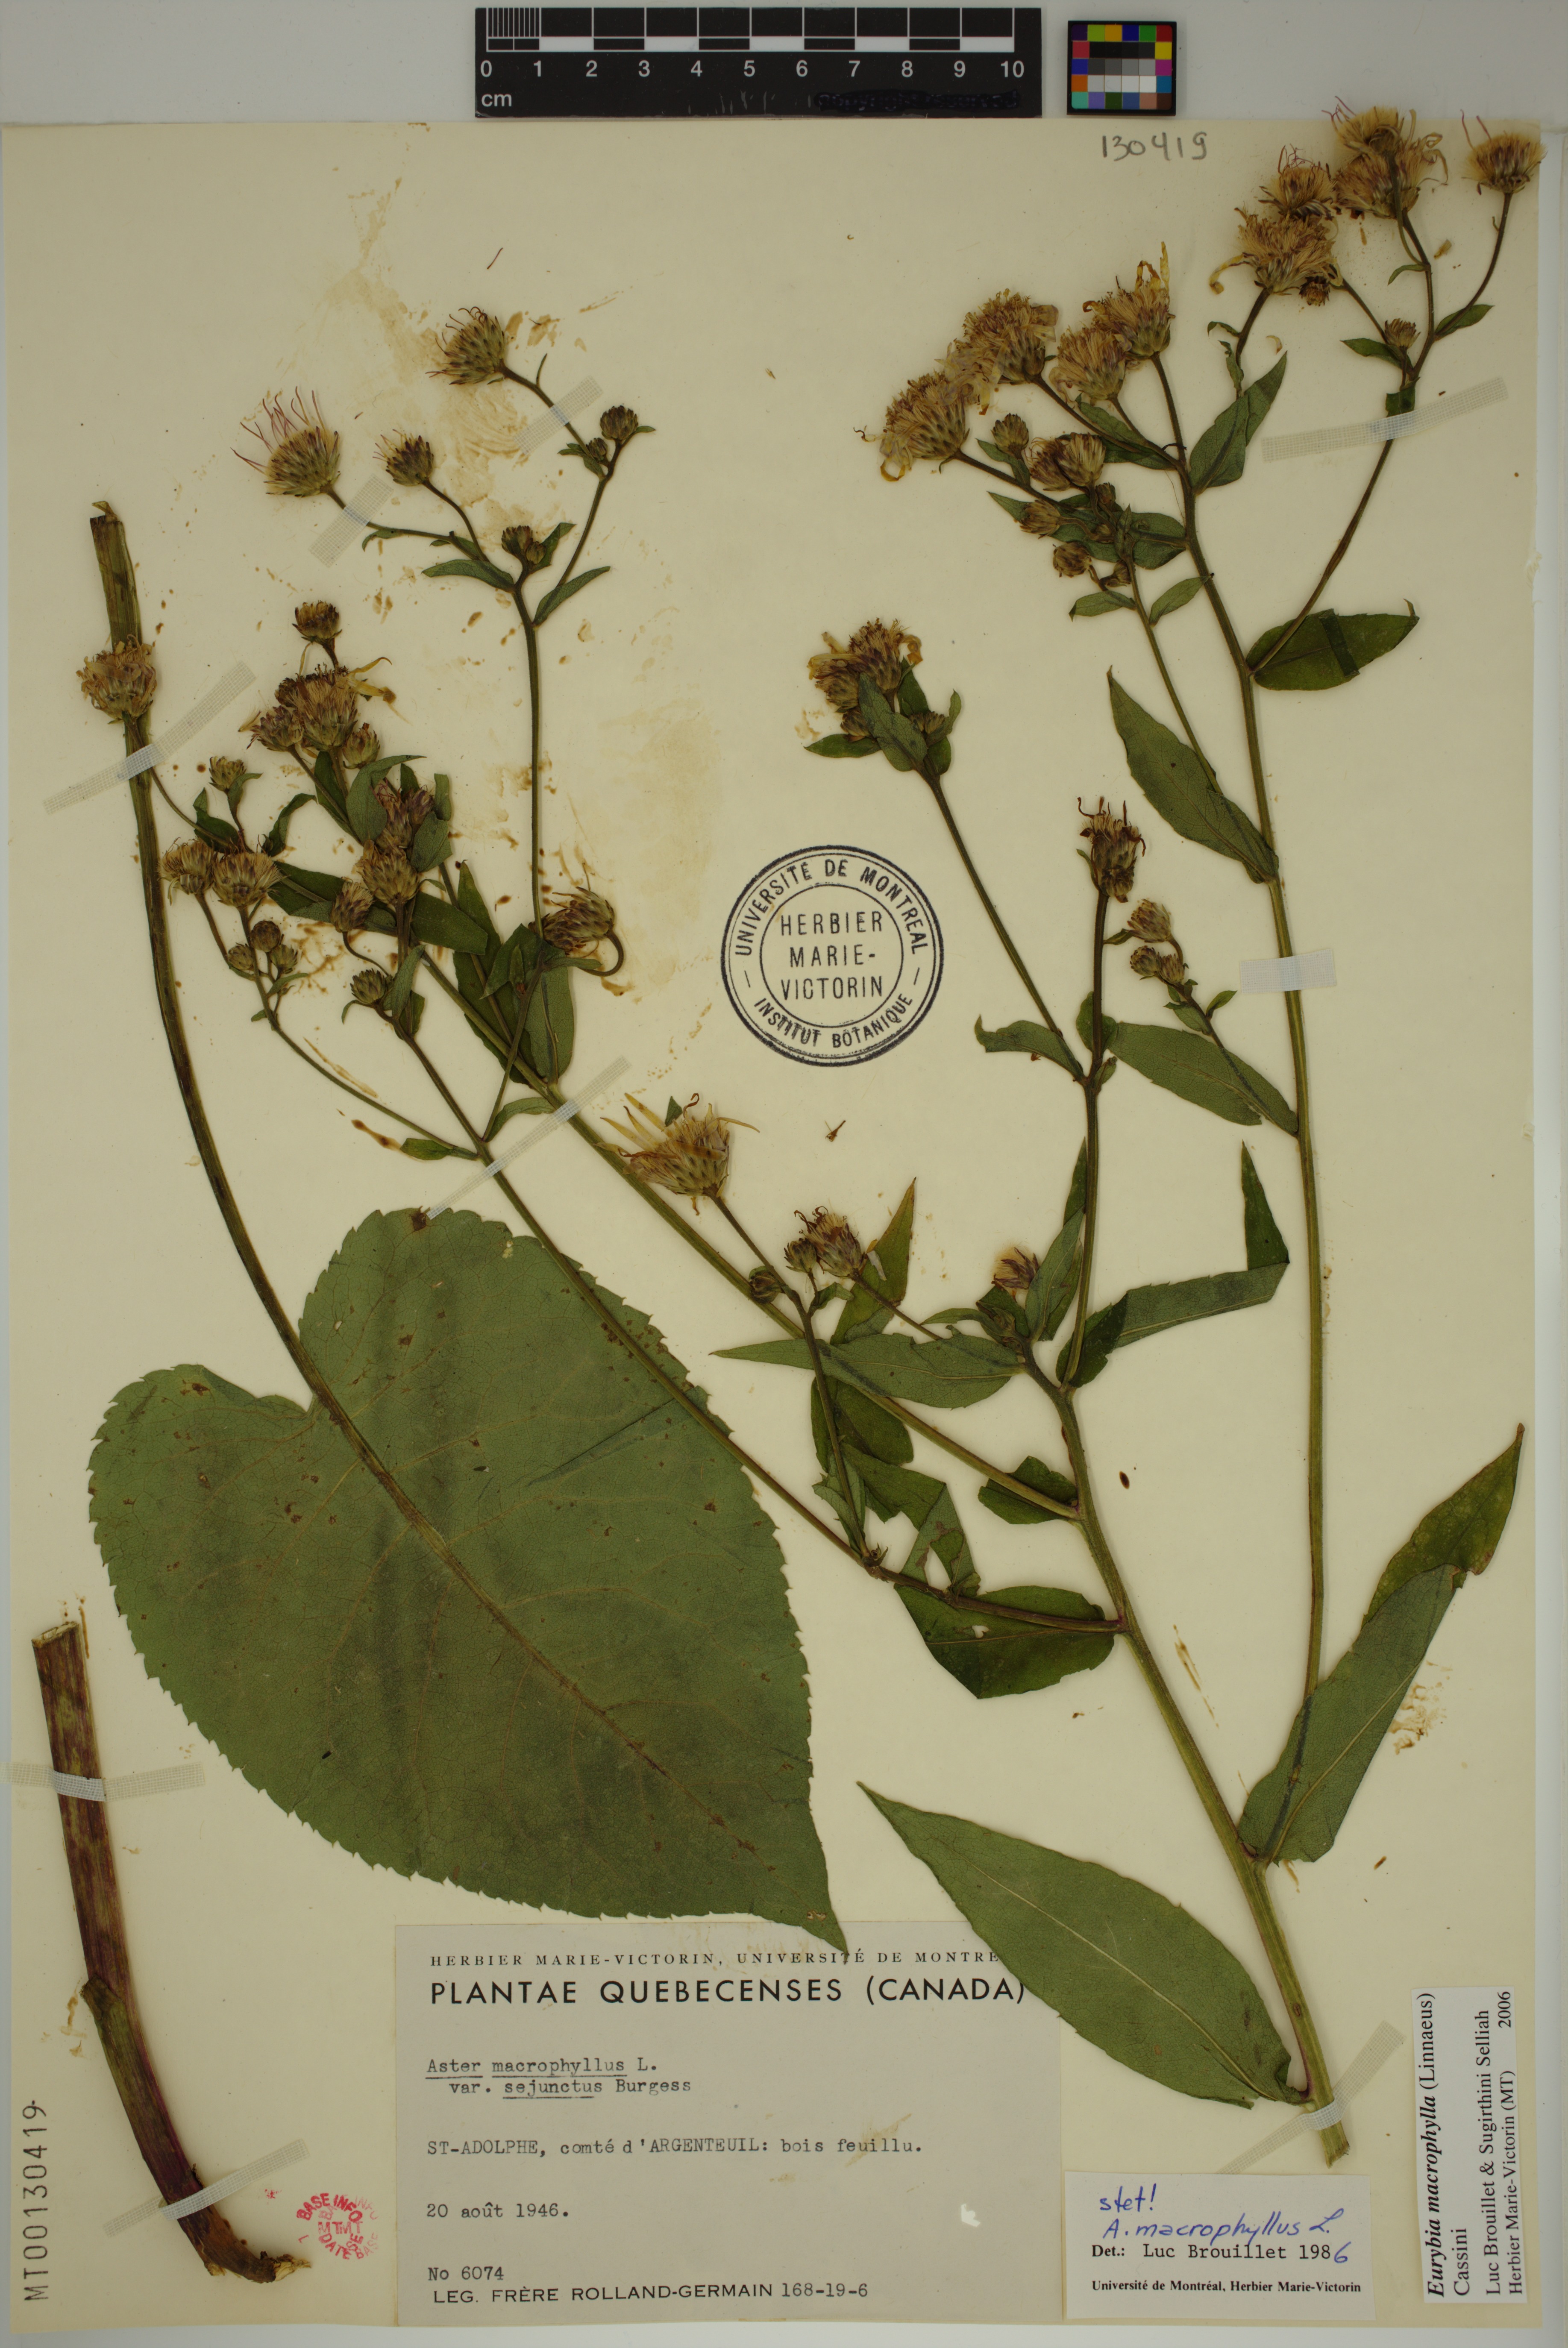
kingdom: Plantae
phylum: Tracheophyta
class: Magnoliopsida
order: Asterales
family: Asteraceae
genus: Eurybia
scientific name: Eurybia macrophylla
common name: Big-leaved aster
